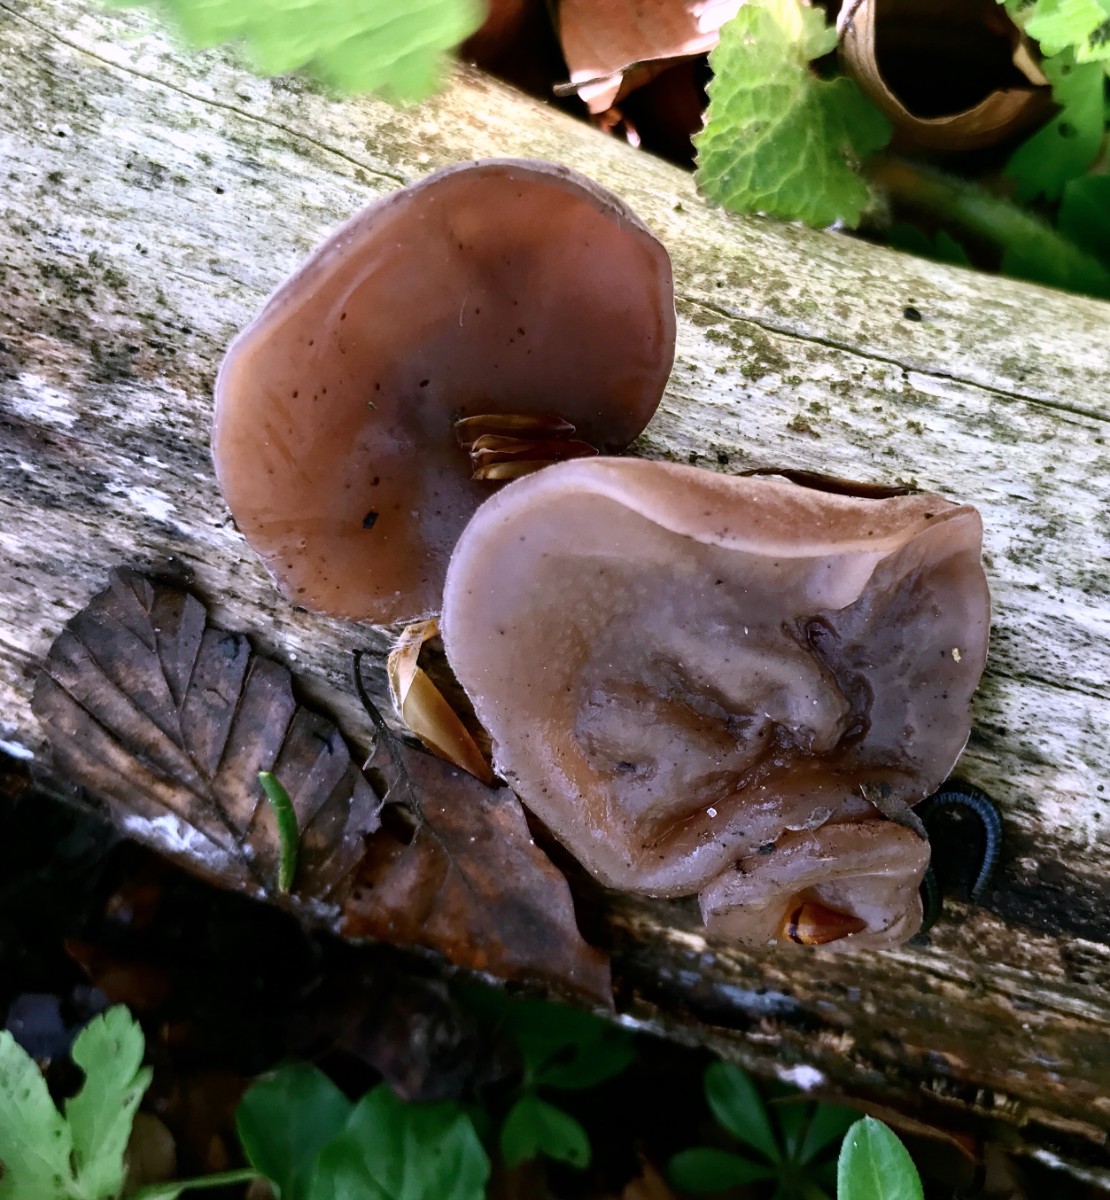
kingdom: Fungi
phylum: Basidiomycota
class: Agaricomycetes
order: Auriculariales
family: Auriculariaceae
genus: Auricularia
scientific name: Auricularia auricula-judae
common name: almindelig judasøre
